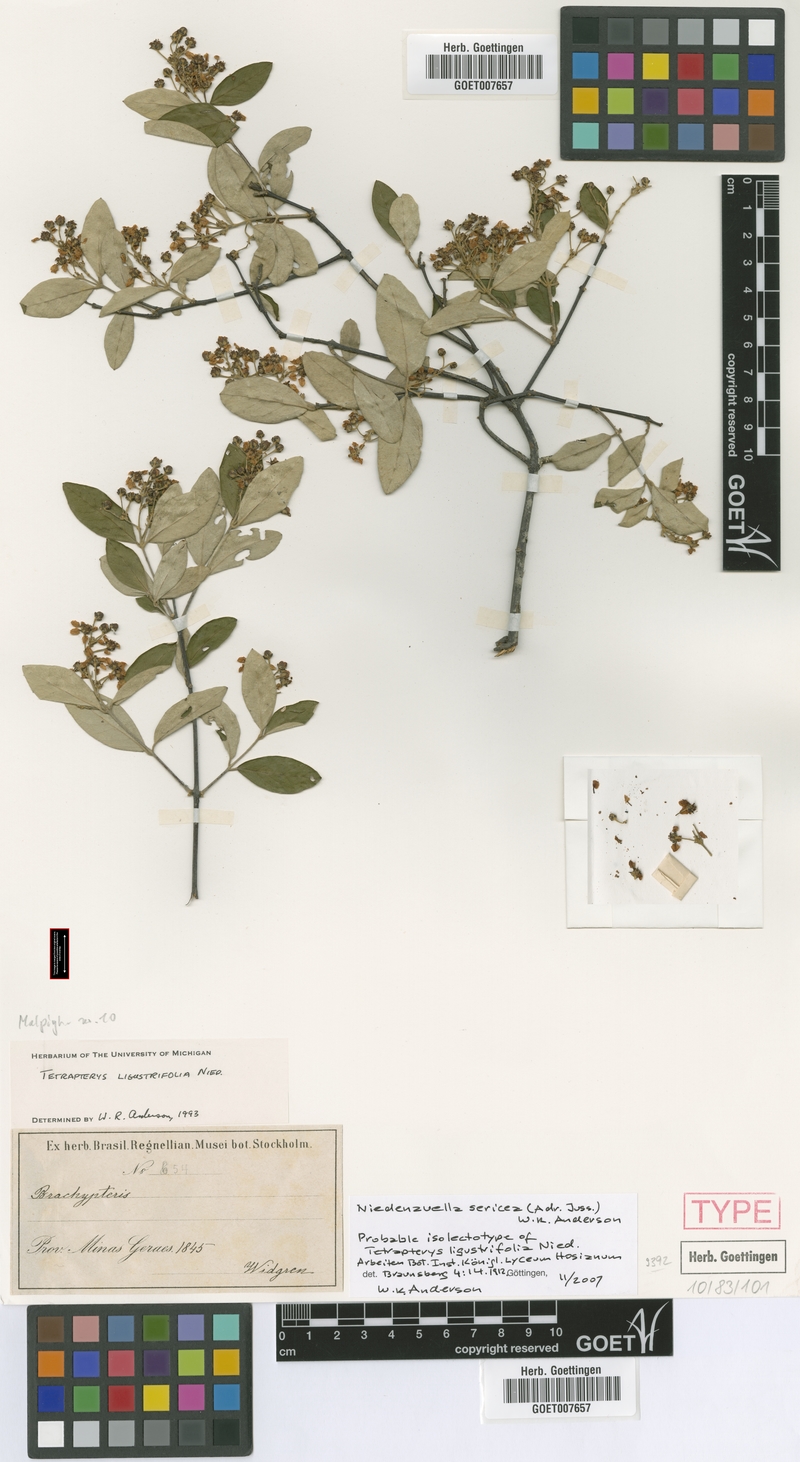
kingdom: Plantae
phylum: Tracheophyta
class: Magnoliopsida
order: Malpighiales
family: Malpighiaceae
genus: Niedenzuella
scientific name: Niedenzuella sericea
